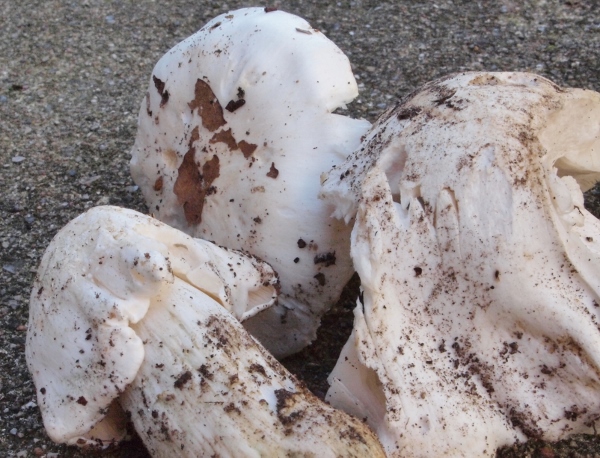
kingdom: Fungi
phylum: Basidiomycota
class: Agaricomycetes
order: Agaricales
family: Tricholomataceae
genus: Tricholoma
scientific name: Tricholoma columbetta
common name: silke-ridderhat
